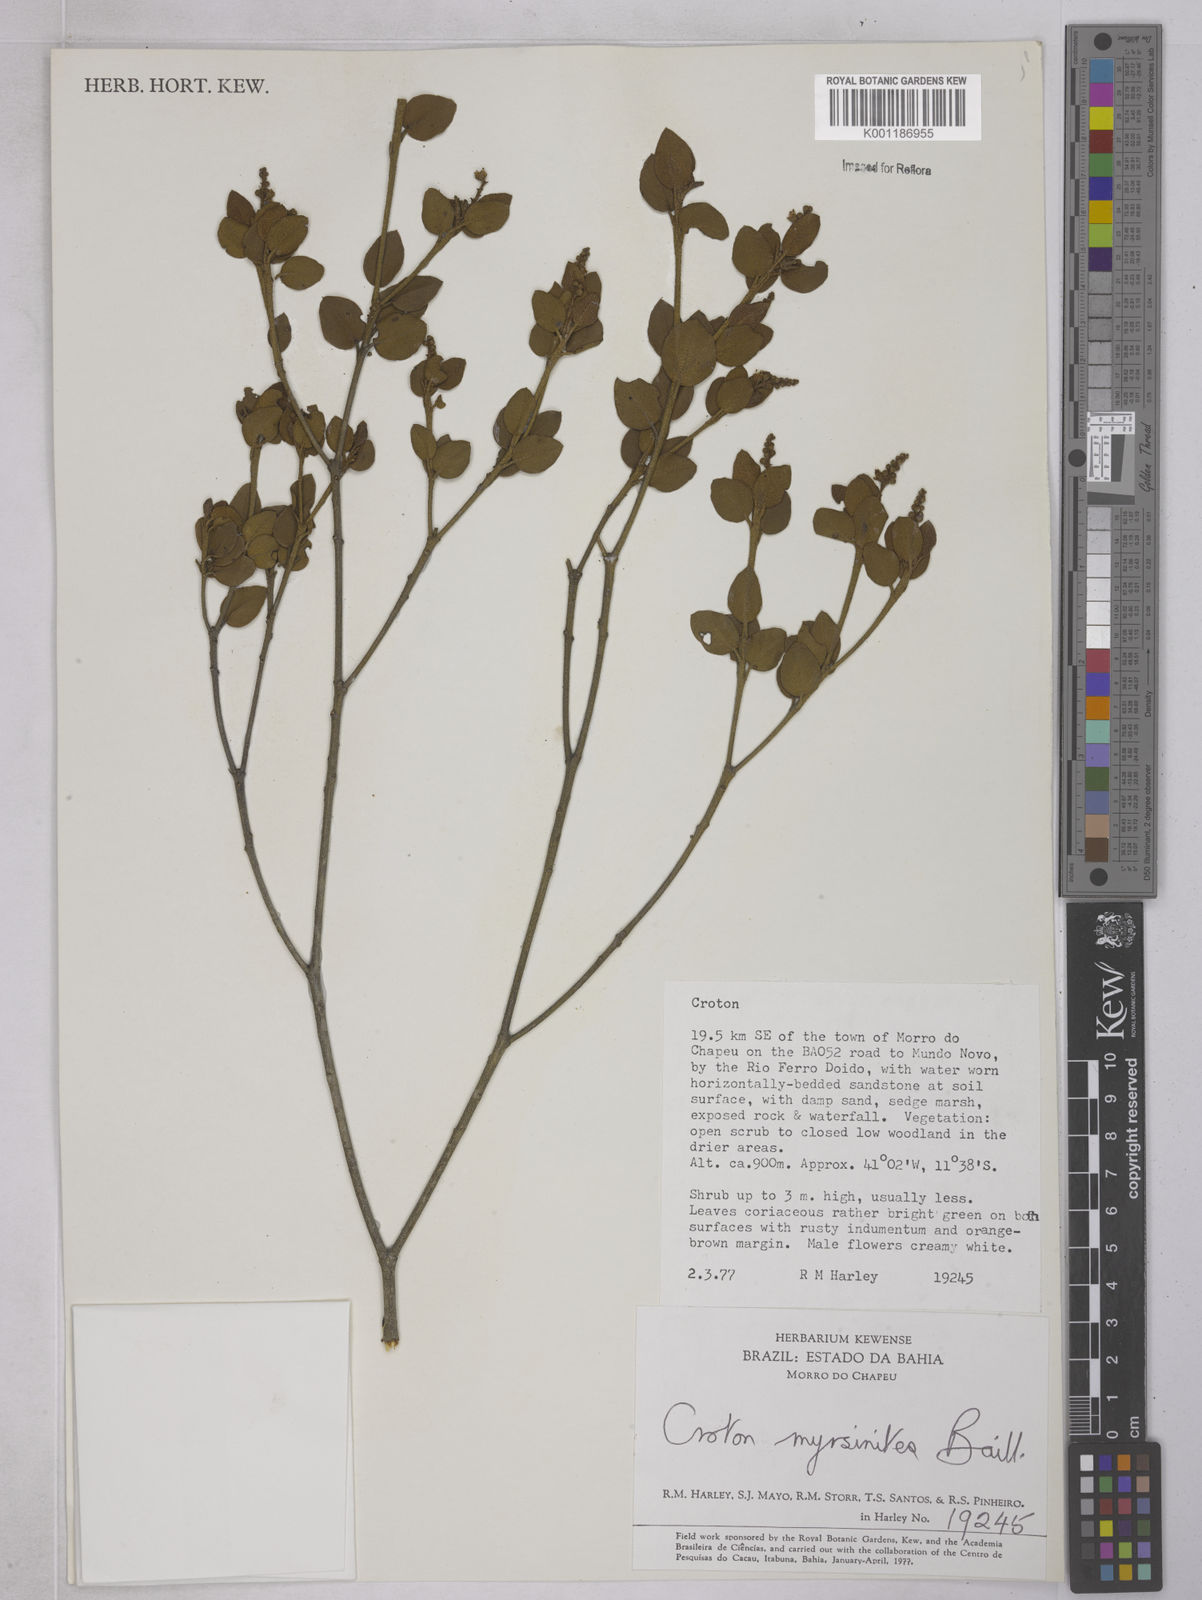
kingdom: Plantae
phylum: Tracheophyta
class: Magnoliopsida
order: Malpighiales
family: Euphorbiaceae
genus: Croton
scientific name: Croton myrsinites
